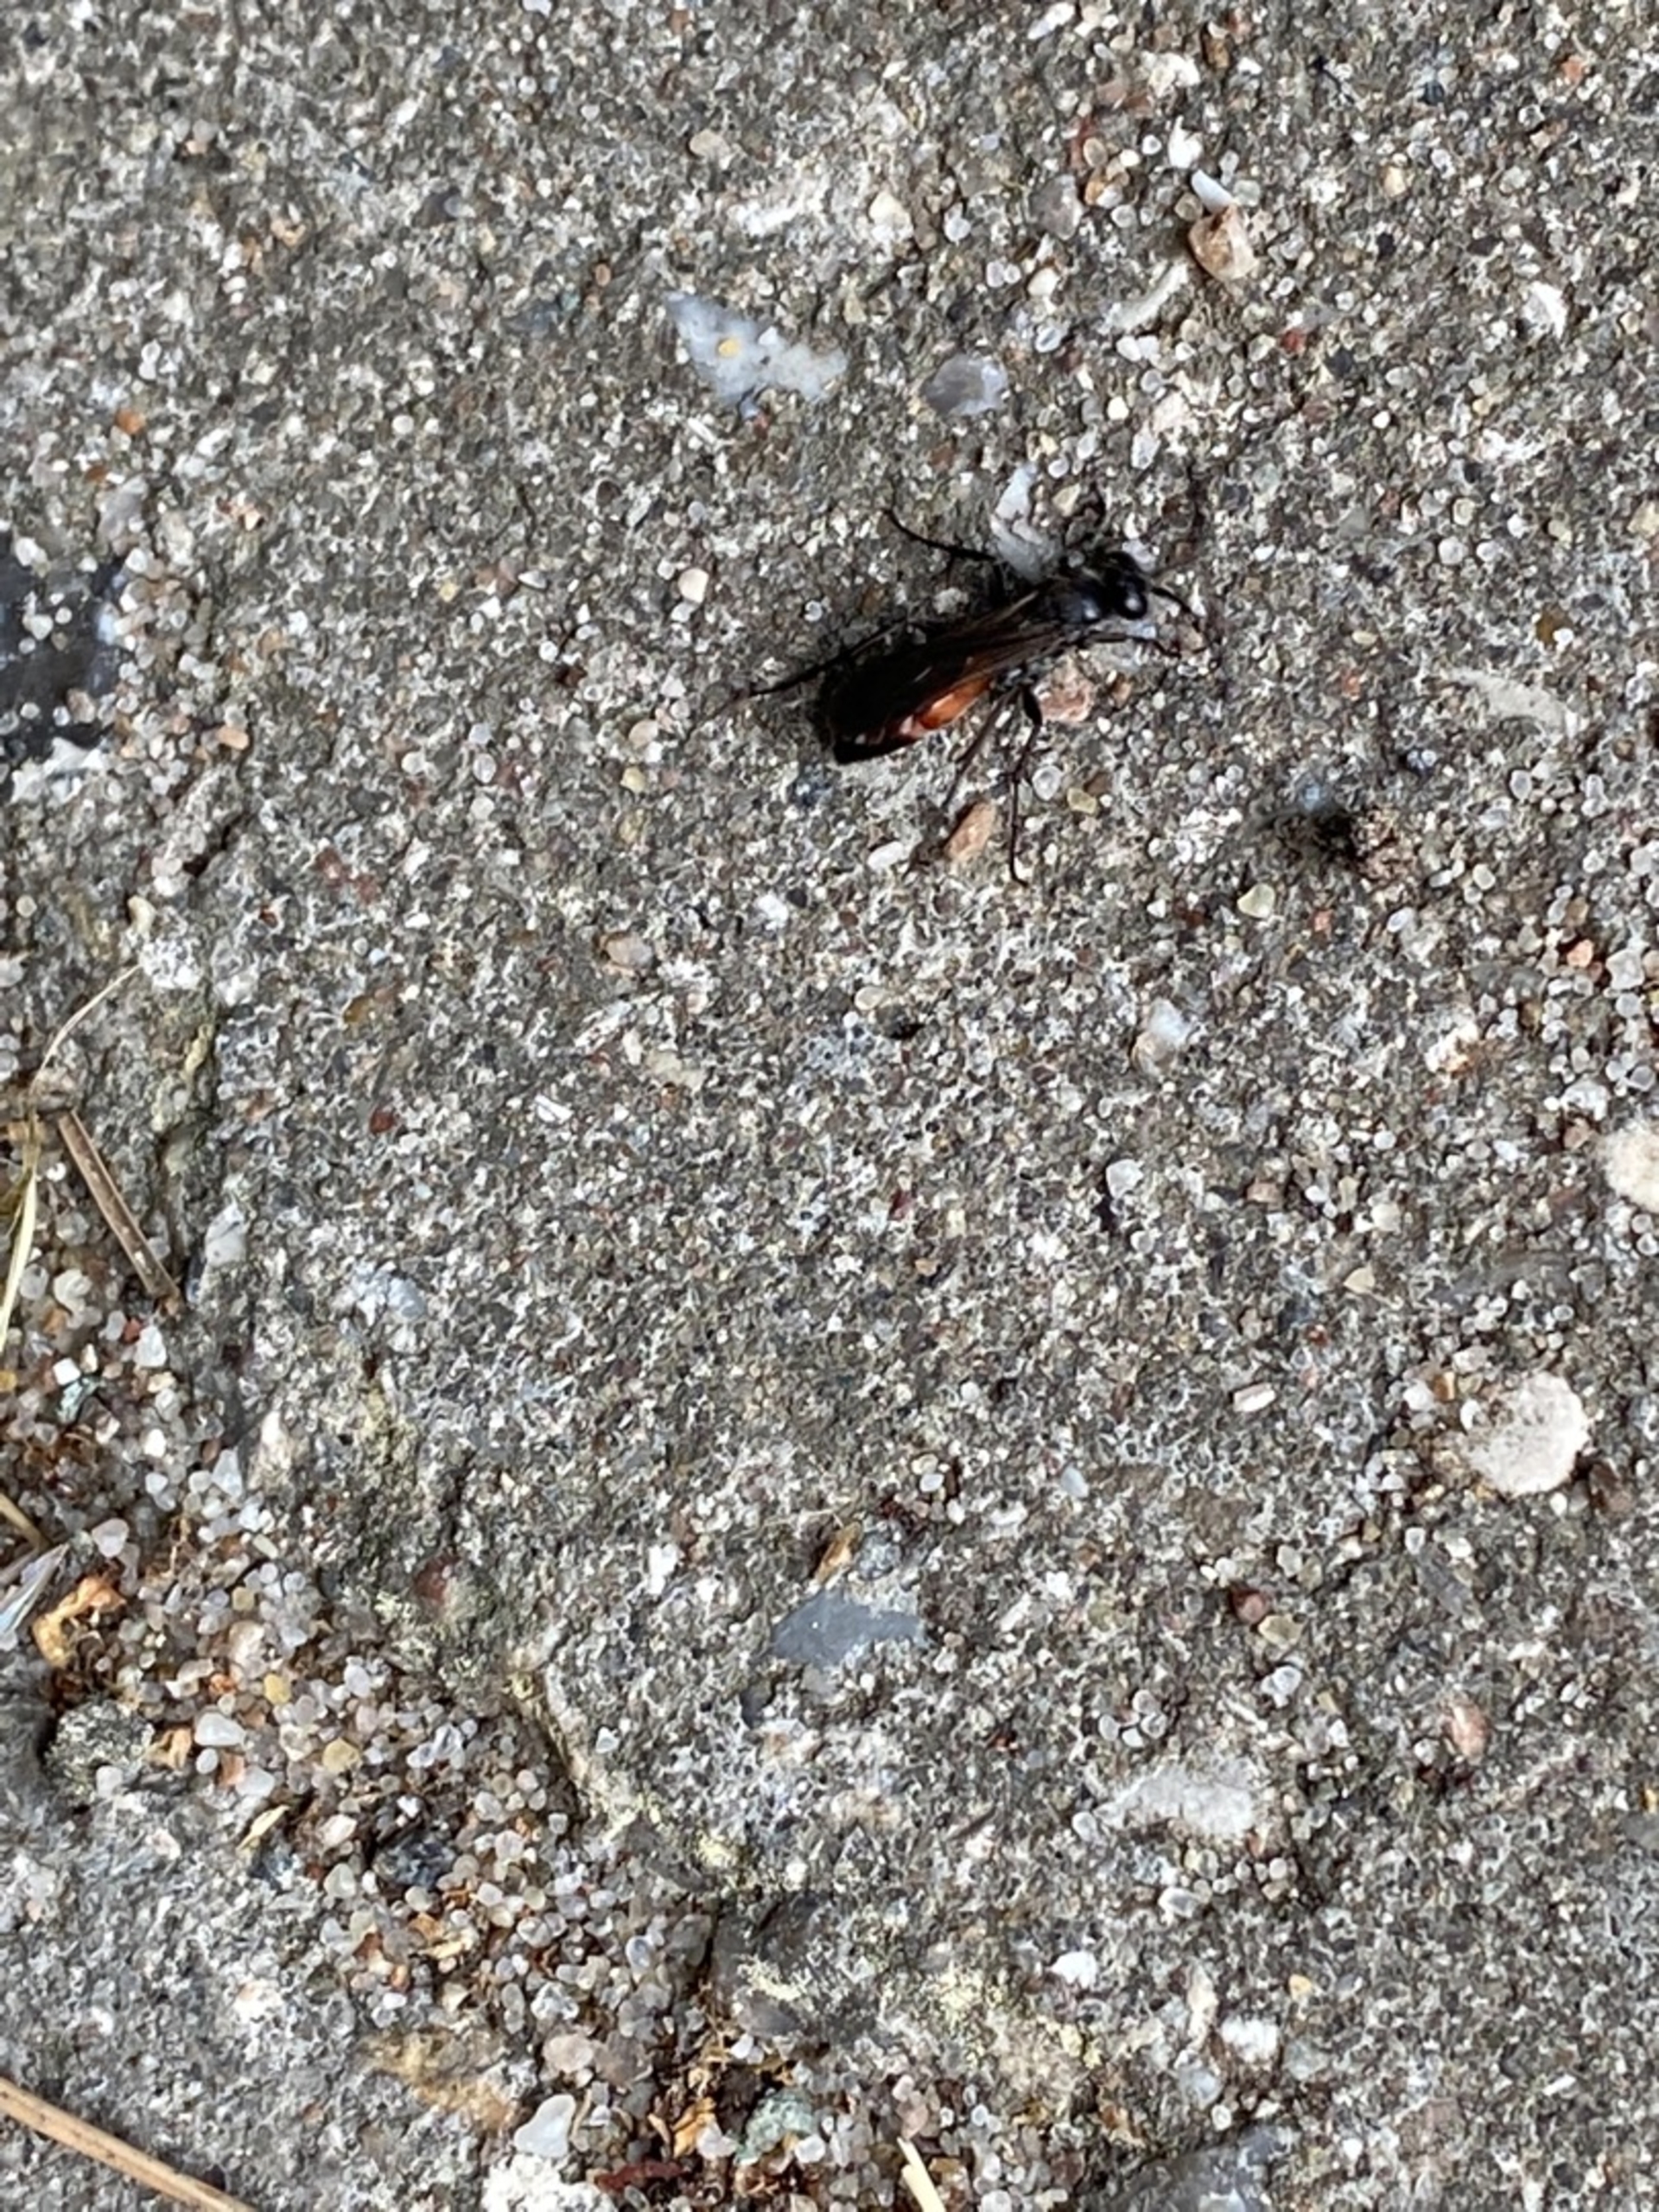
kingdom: Animalia
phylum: Arthropoda
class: Insecta
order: Hymenoptera
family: Pompilidae
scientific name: Pompilidae
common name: Vejhvepse
